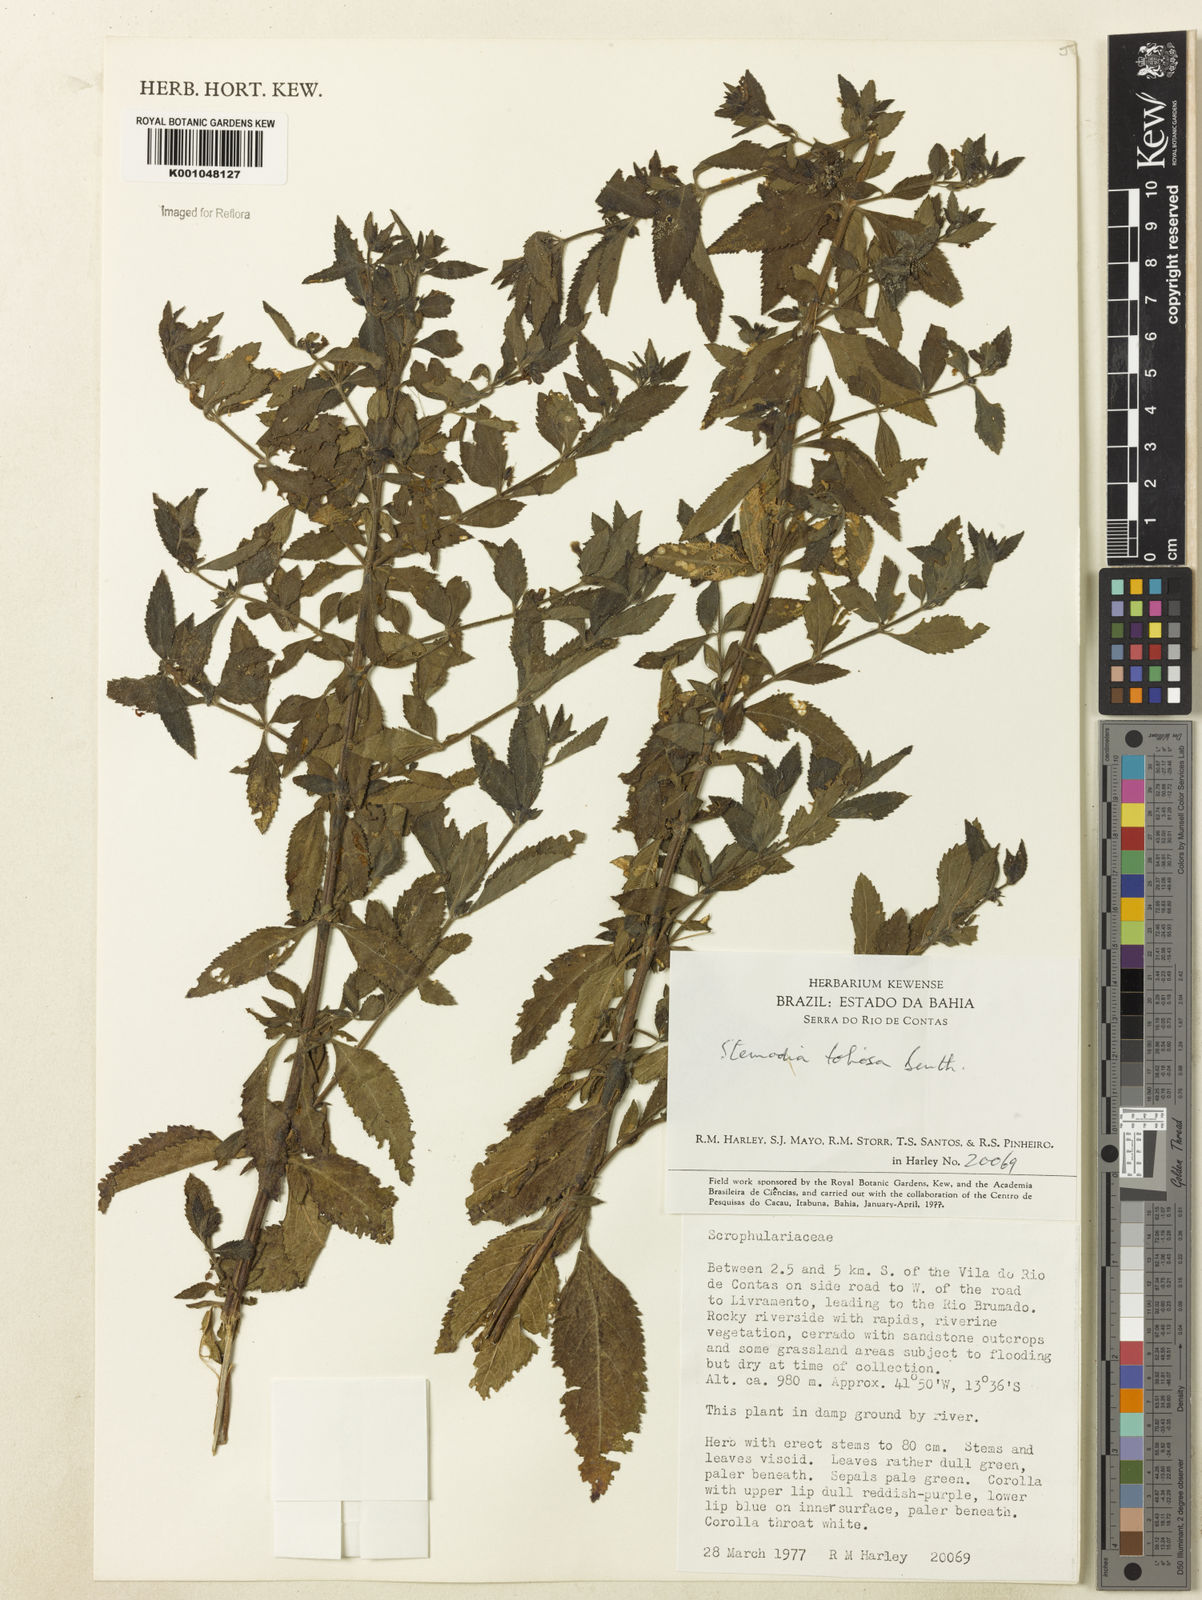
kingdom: Plantae
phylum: Tracheophyta
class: Magnoliopsida
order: Lamiales
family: Plantaginaceae
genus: Stemodia
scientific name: Stemodia foliosa
